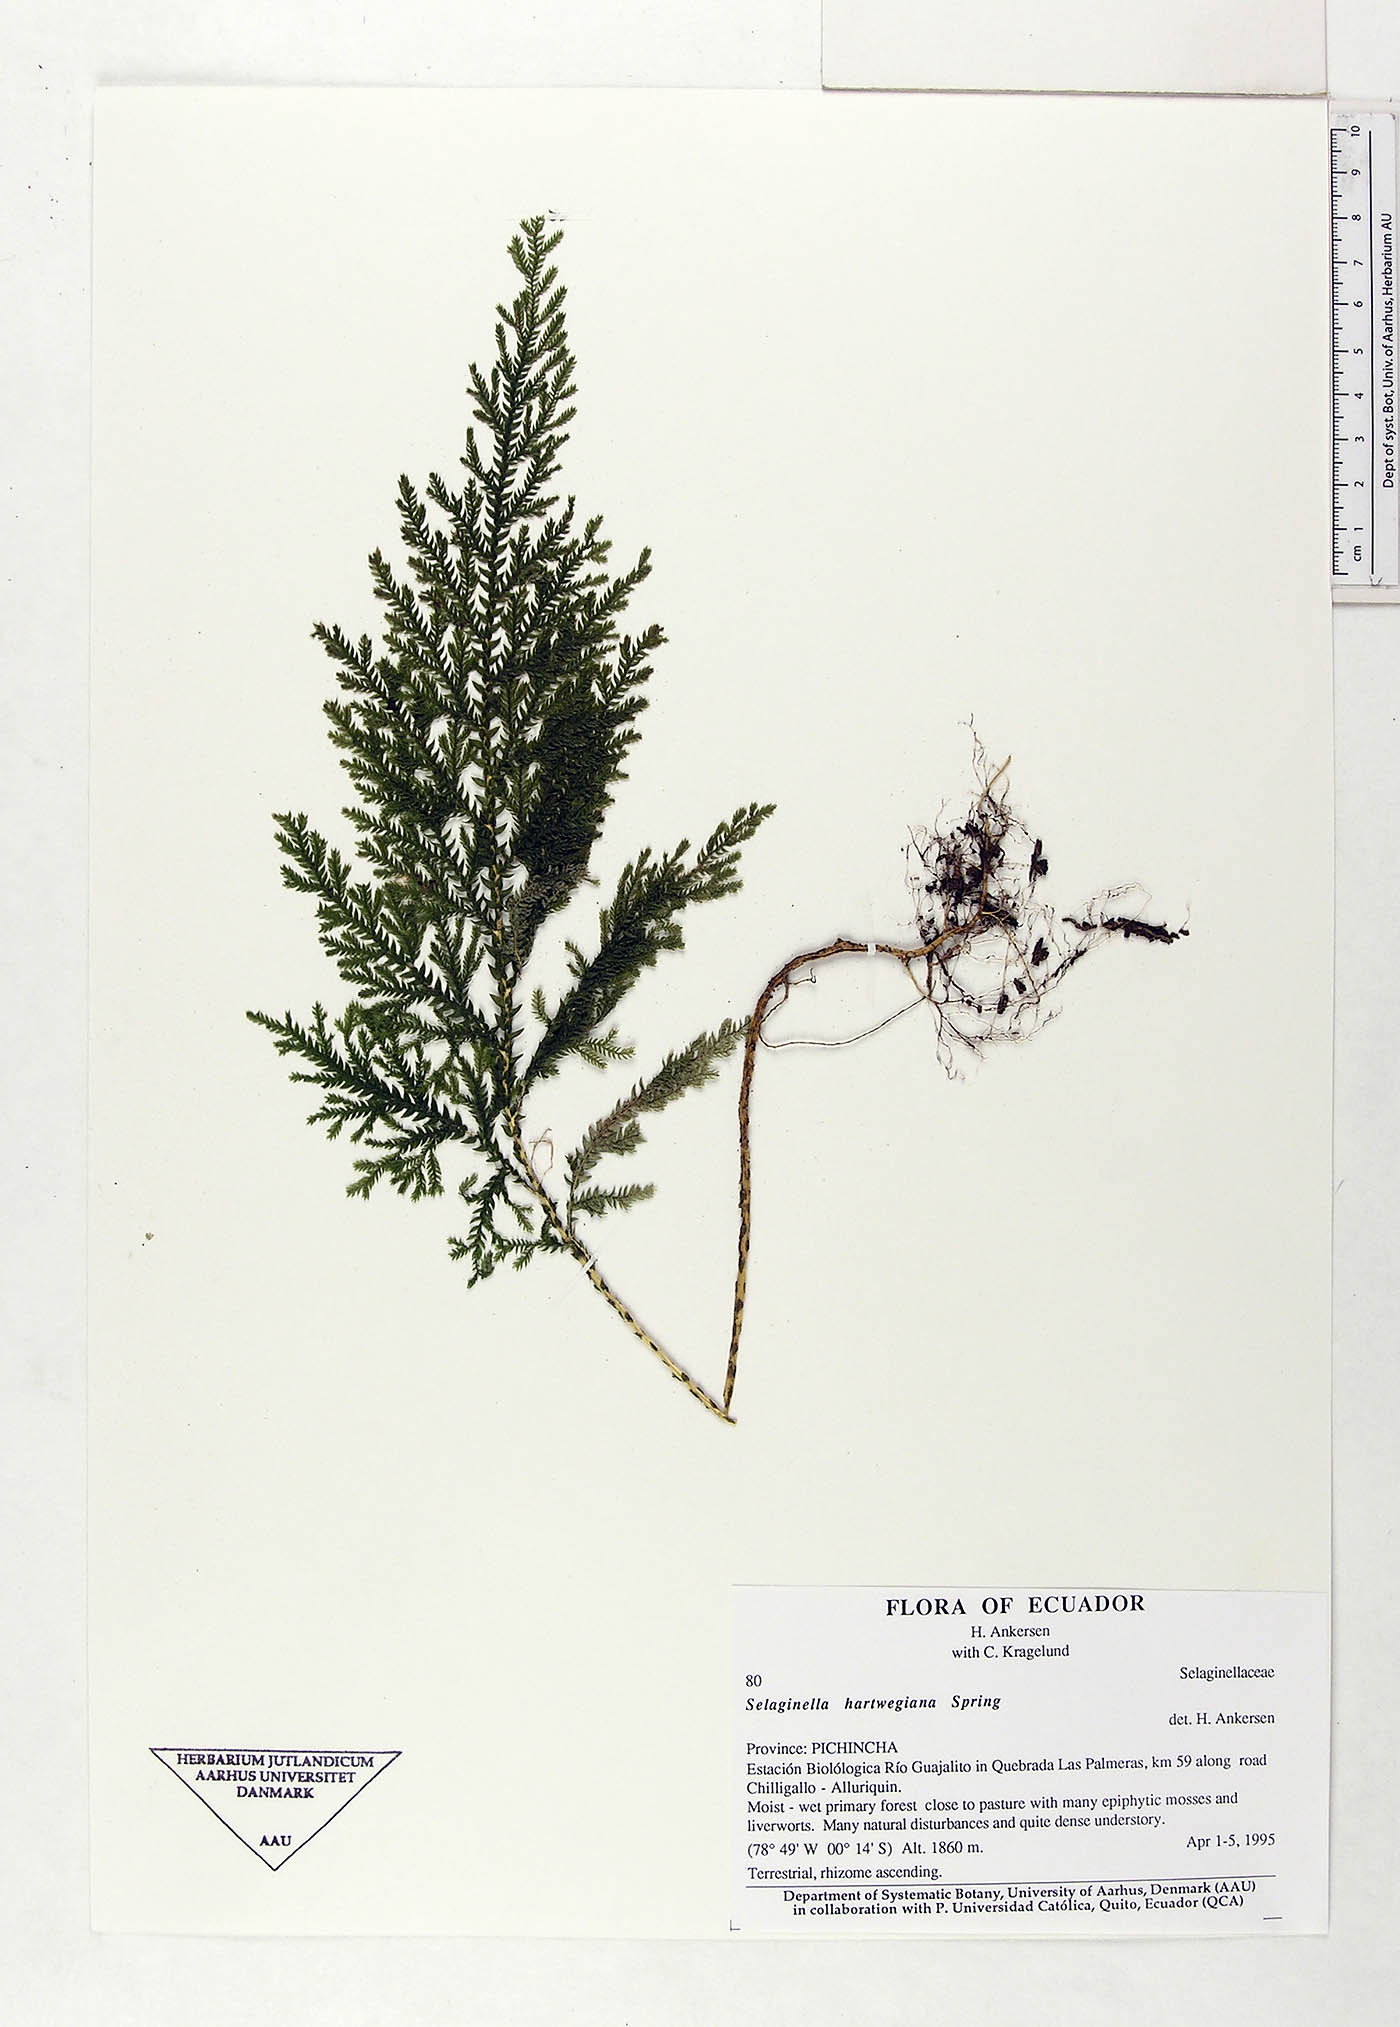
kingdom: Plantae
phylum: Tracheophyta
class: Lycopodiopsida
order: Selaginellales
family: Selaginellaceae
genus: Selaginella
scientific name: Selaginella hartwegiana
